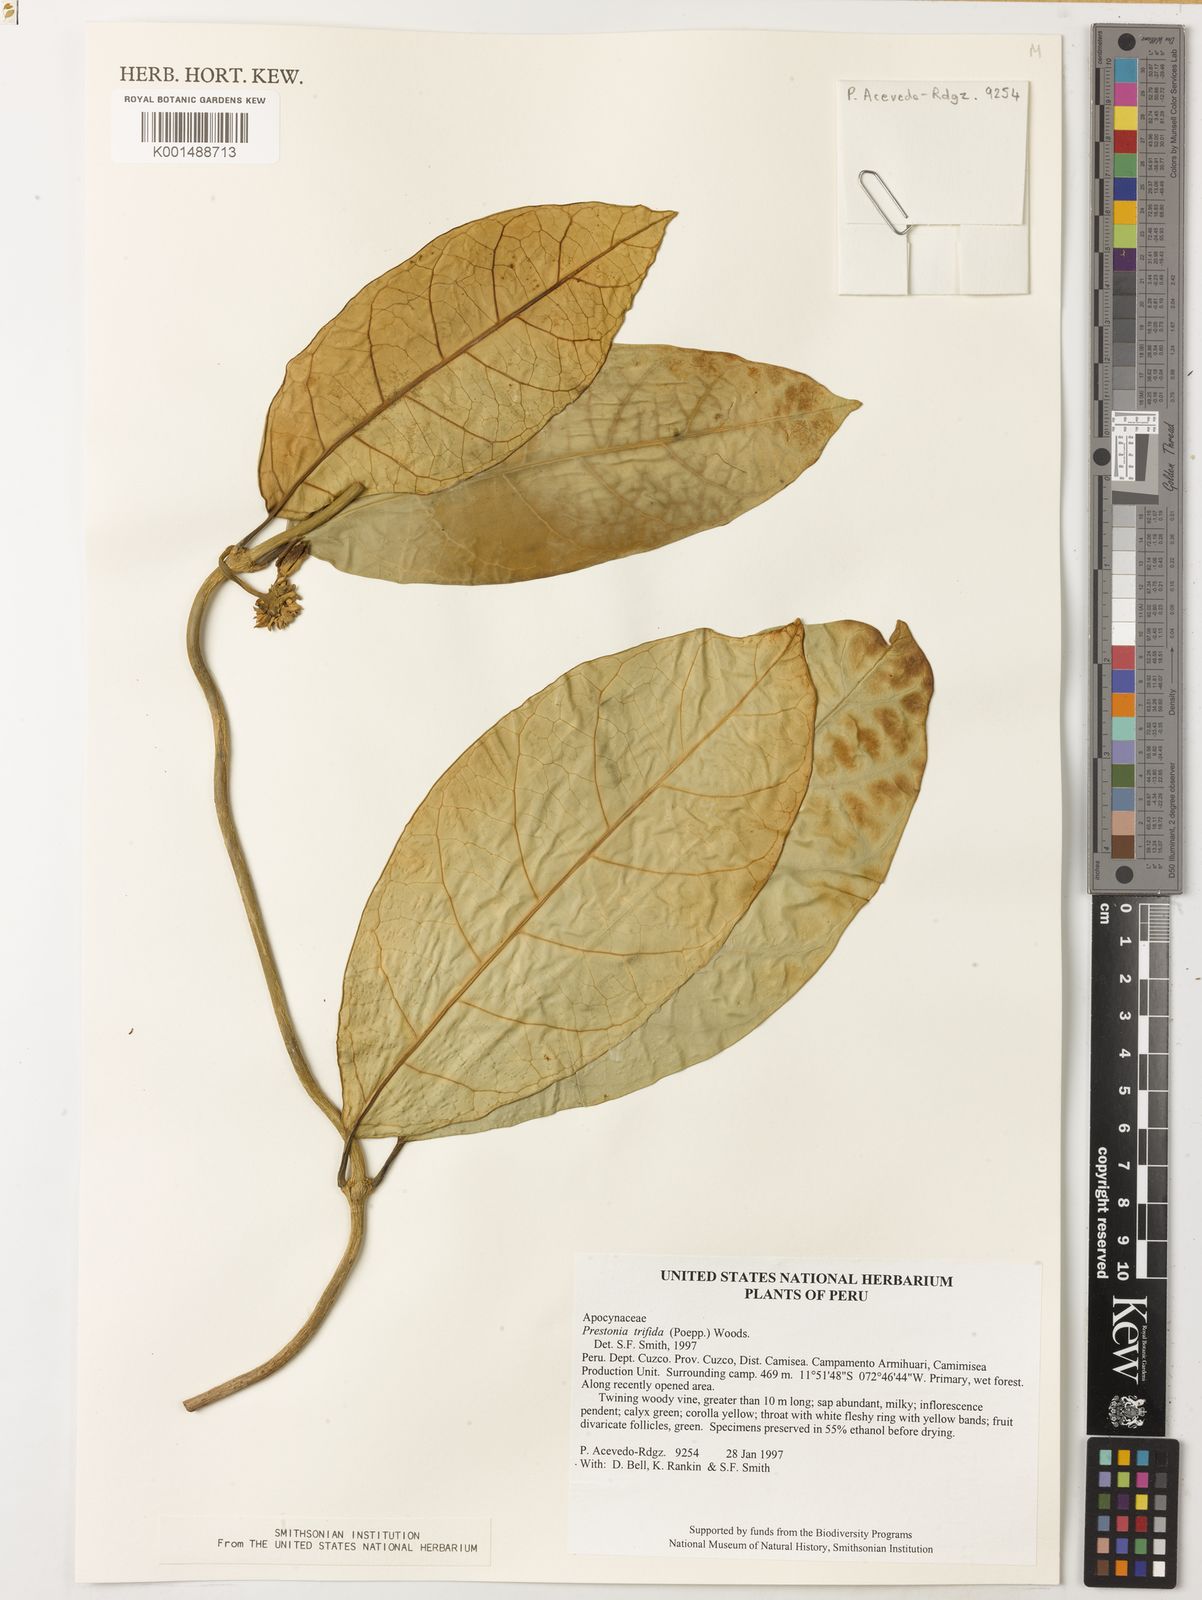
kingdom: Plantae
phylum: Tracheophyta
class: Magnoliopsida
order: Gentianales
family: Apocynaceae
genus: Prestonia
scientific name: Prestonia trifida
